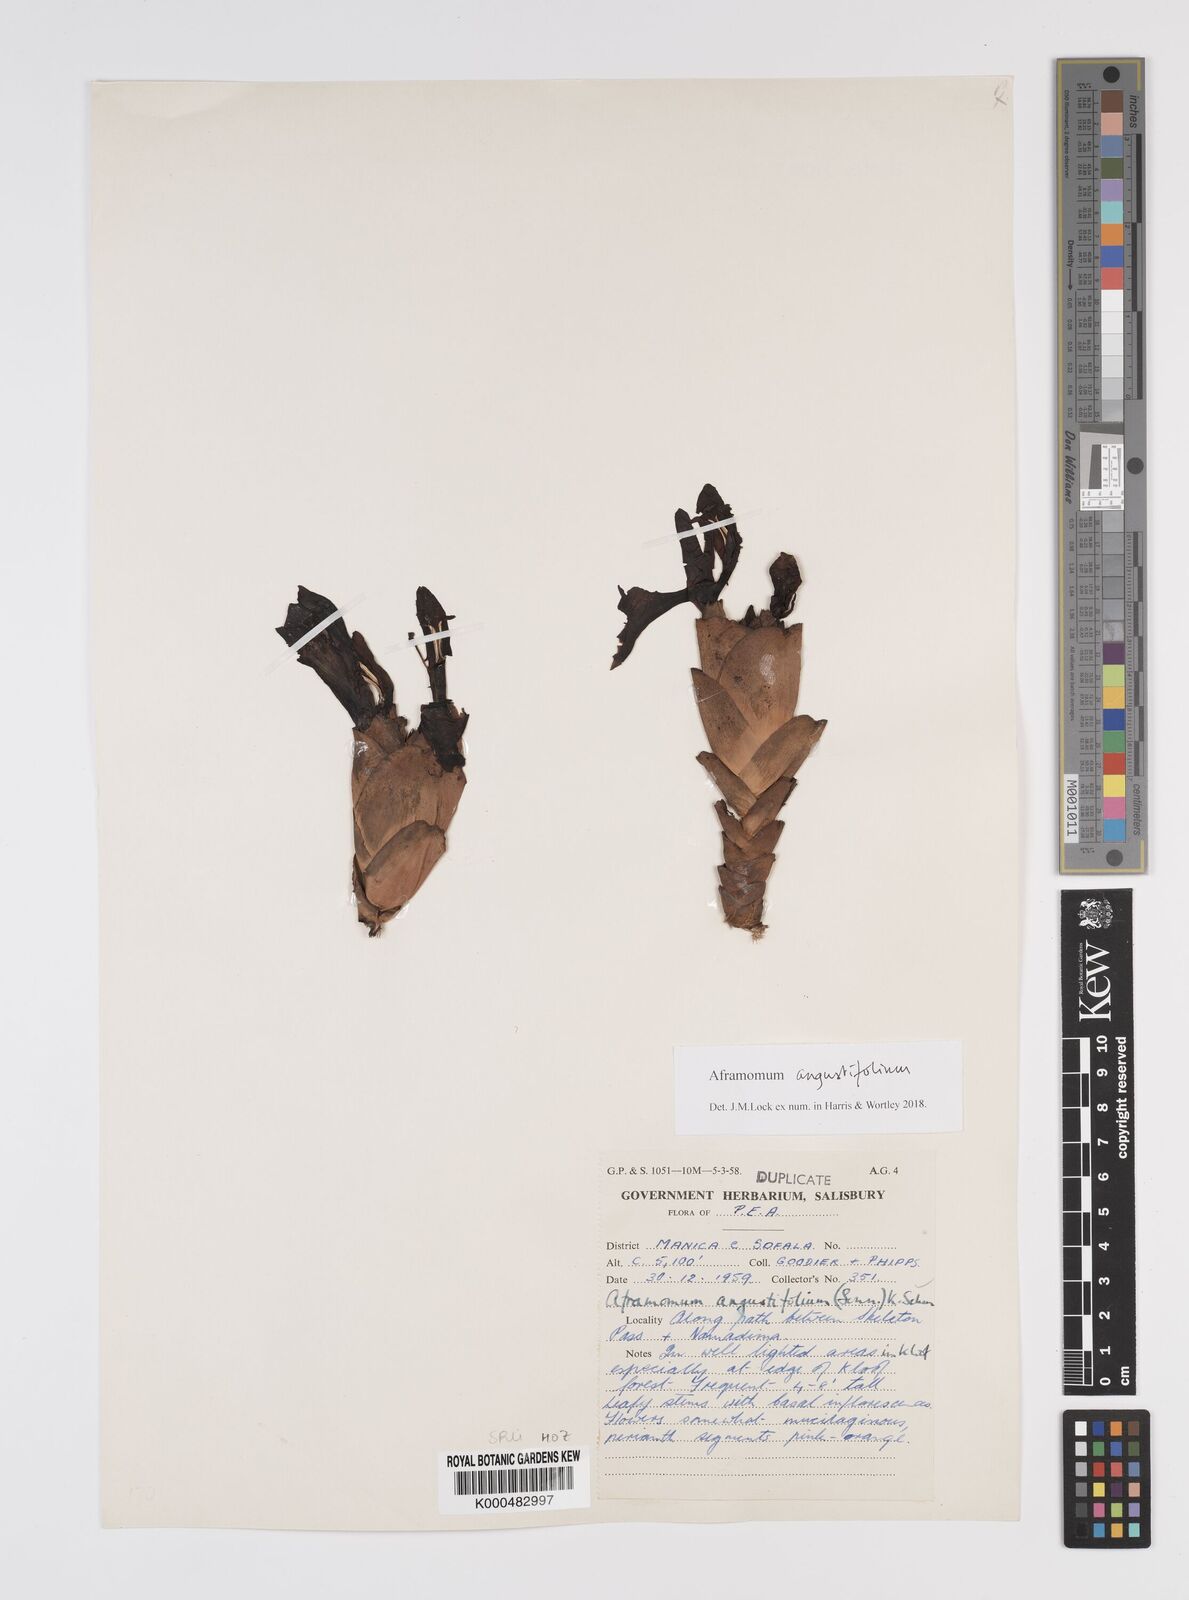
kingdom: Plantae
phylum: Tracheophyta
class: Liliopsida
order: Zingiberales
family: Zingiberaceae
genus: Aframomum
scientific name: Aframomum angustifolium
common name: Guinea grains
